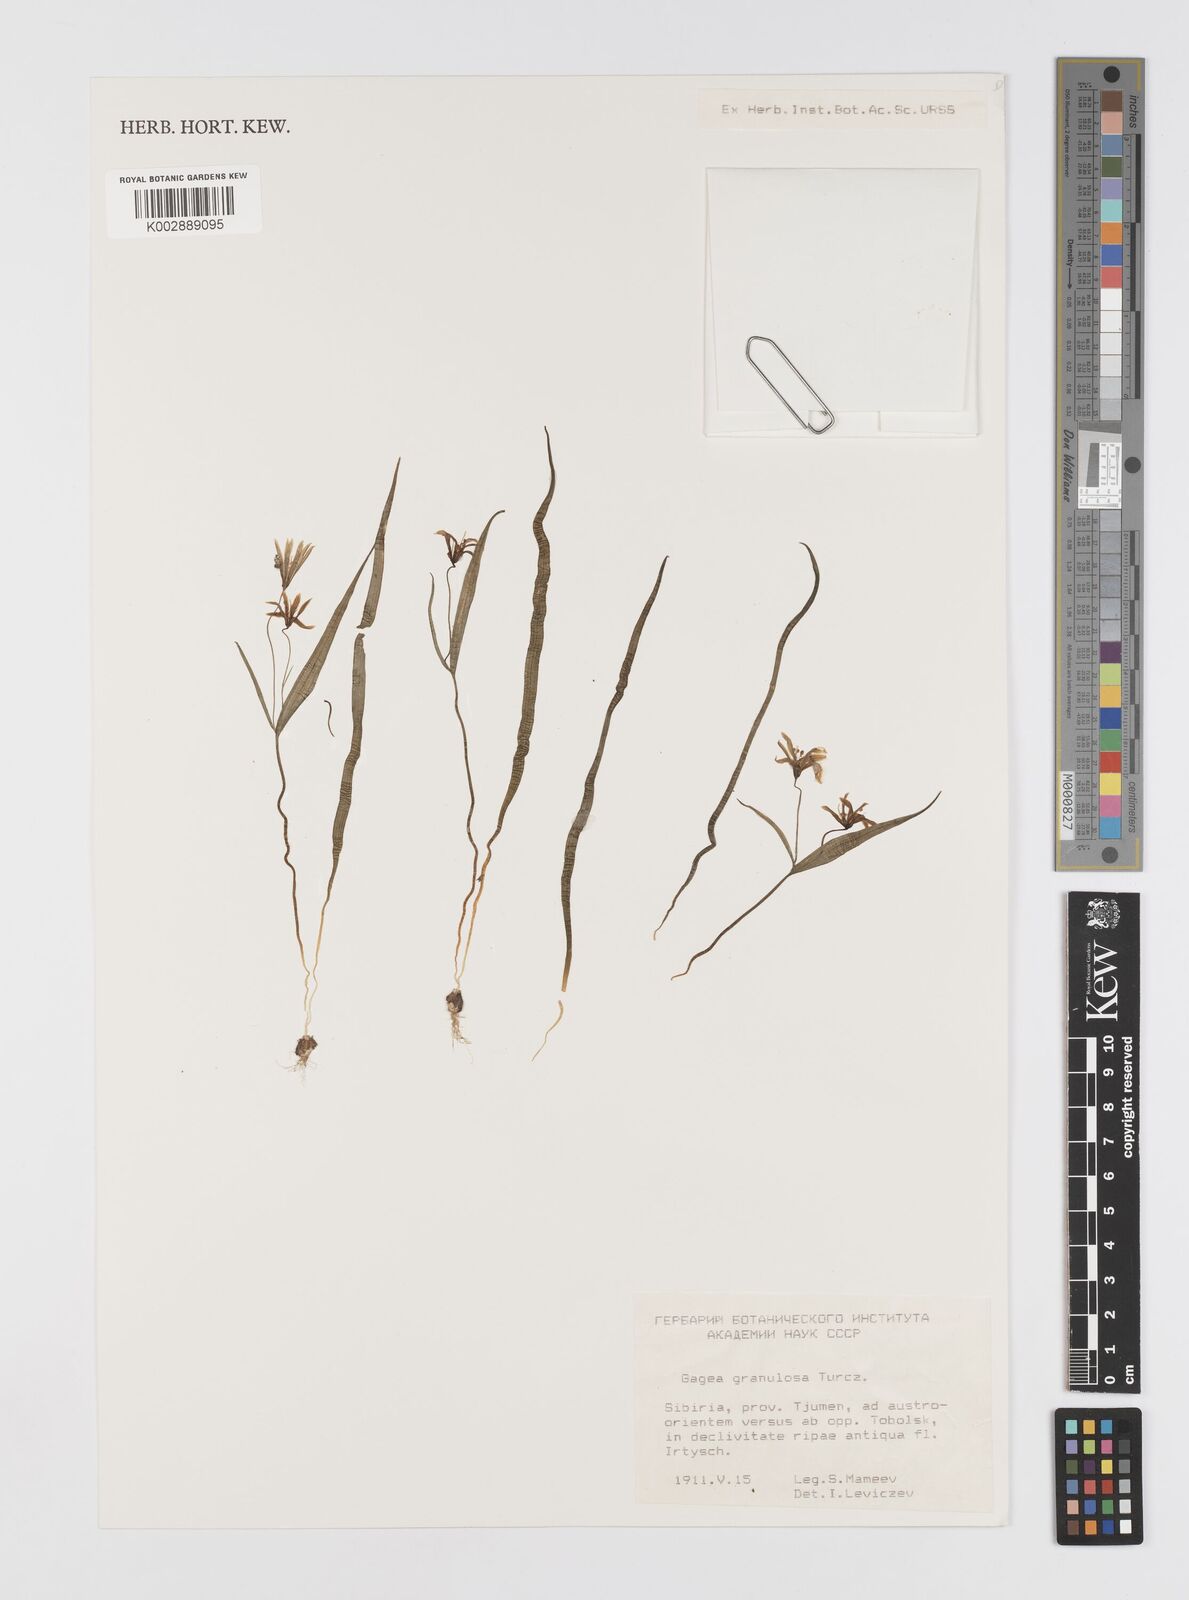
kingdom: Plantae
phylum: Tracheophyta
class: Liliopsida
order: Liliales
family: Liliaceae
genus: Gagea
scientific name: Gagea granulosa
